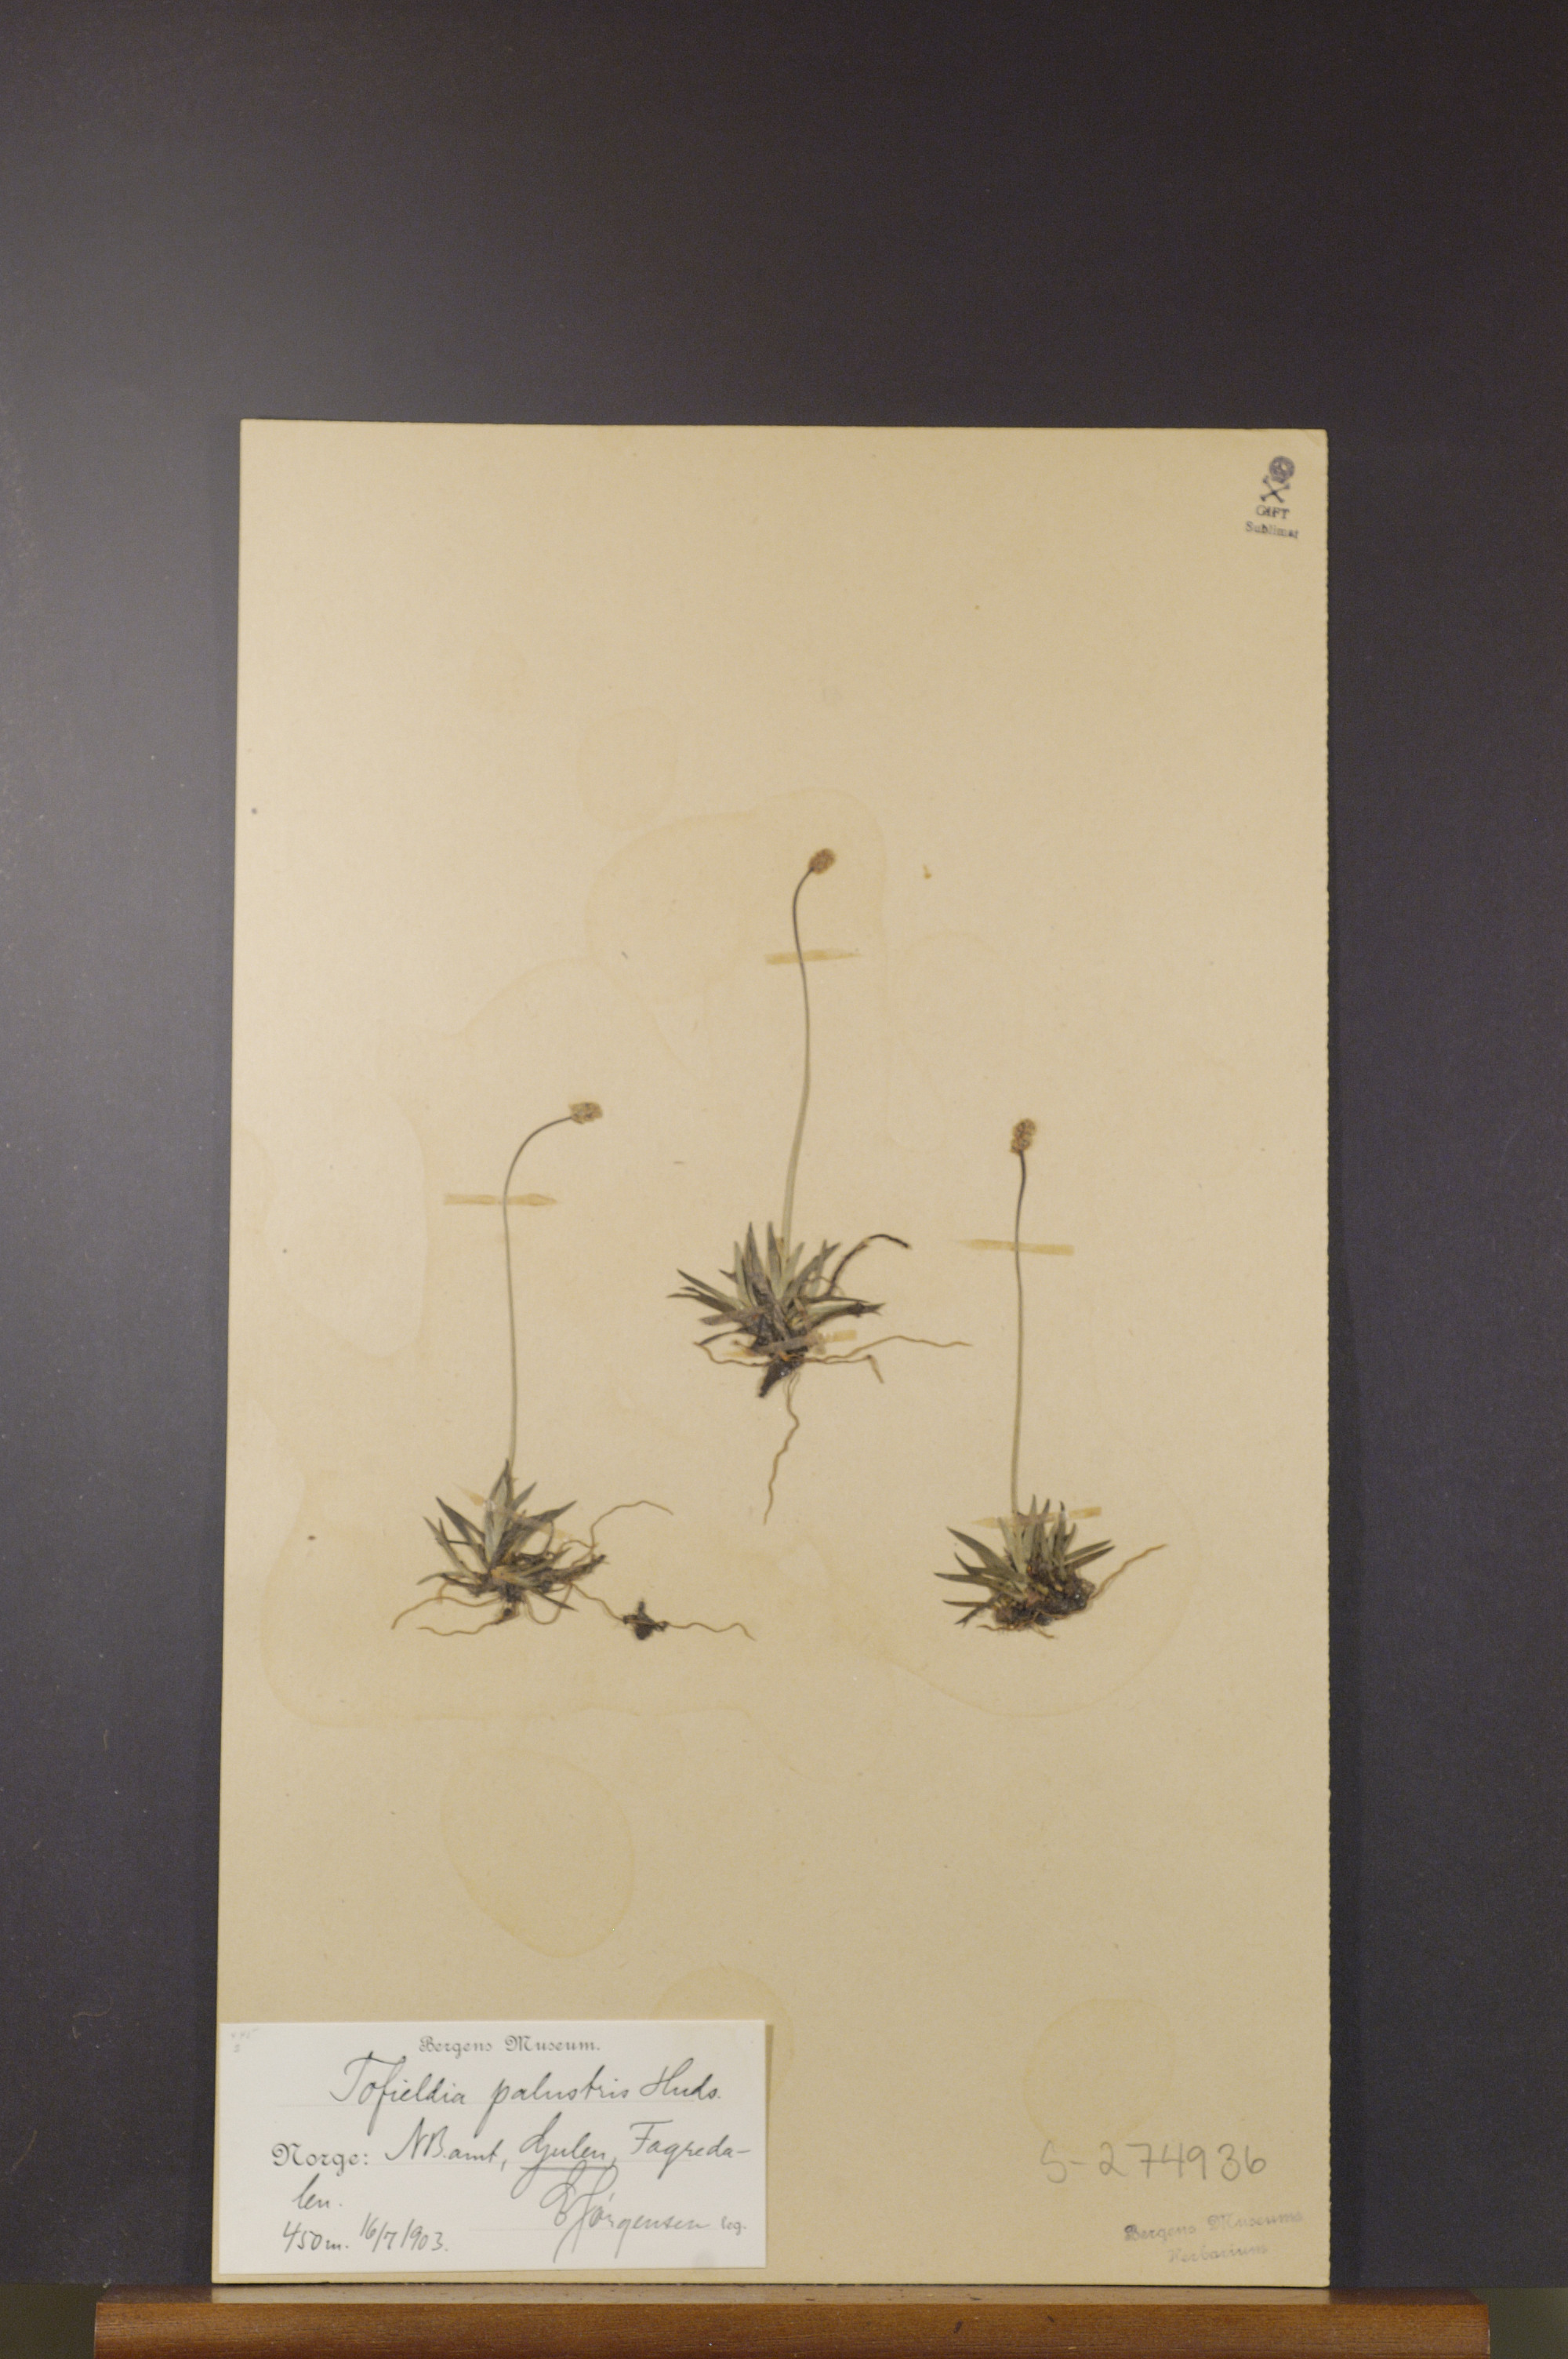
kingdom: Plantae
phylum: Tracheophyta
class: Liliopsida
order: Alismatales
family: Tofieldiaceae
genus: Tofieldia
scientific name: Tofieldia pusilla
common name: Scottish false asphodel
